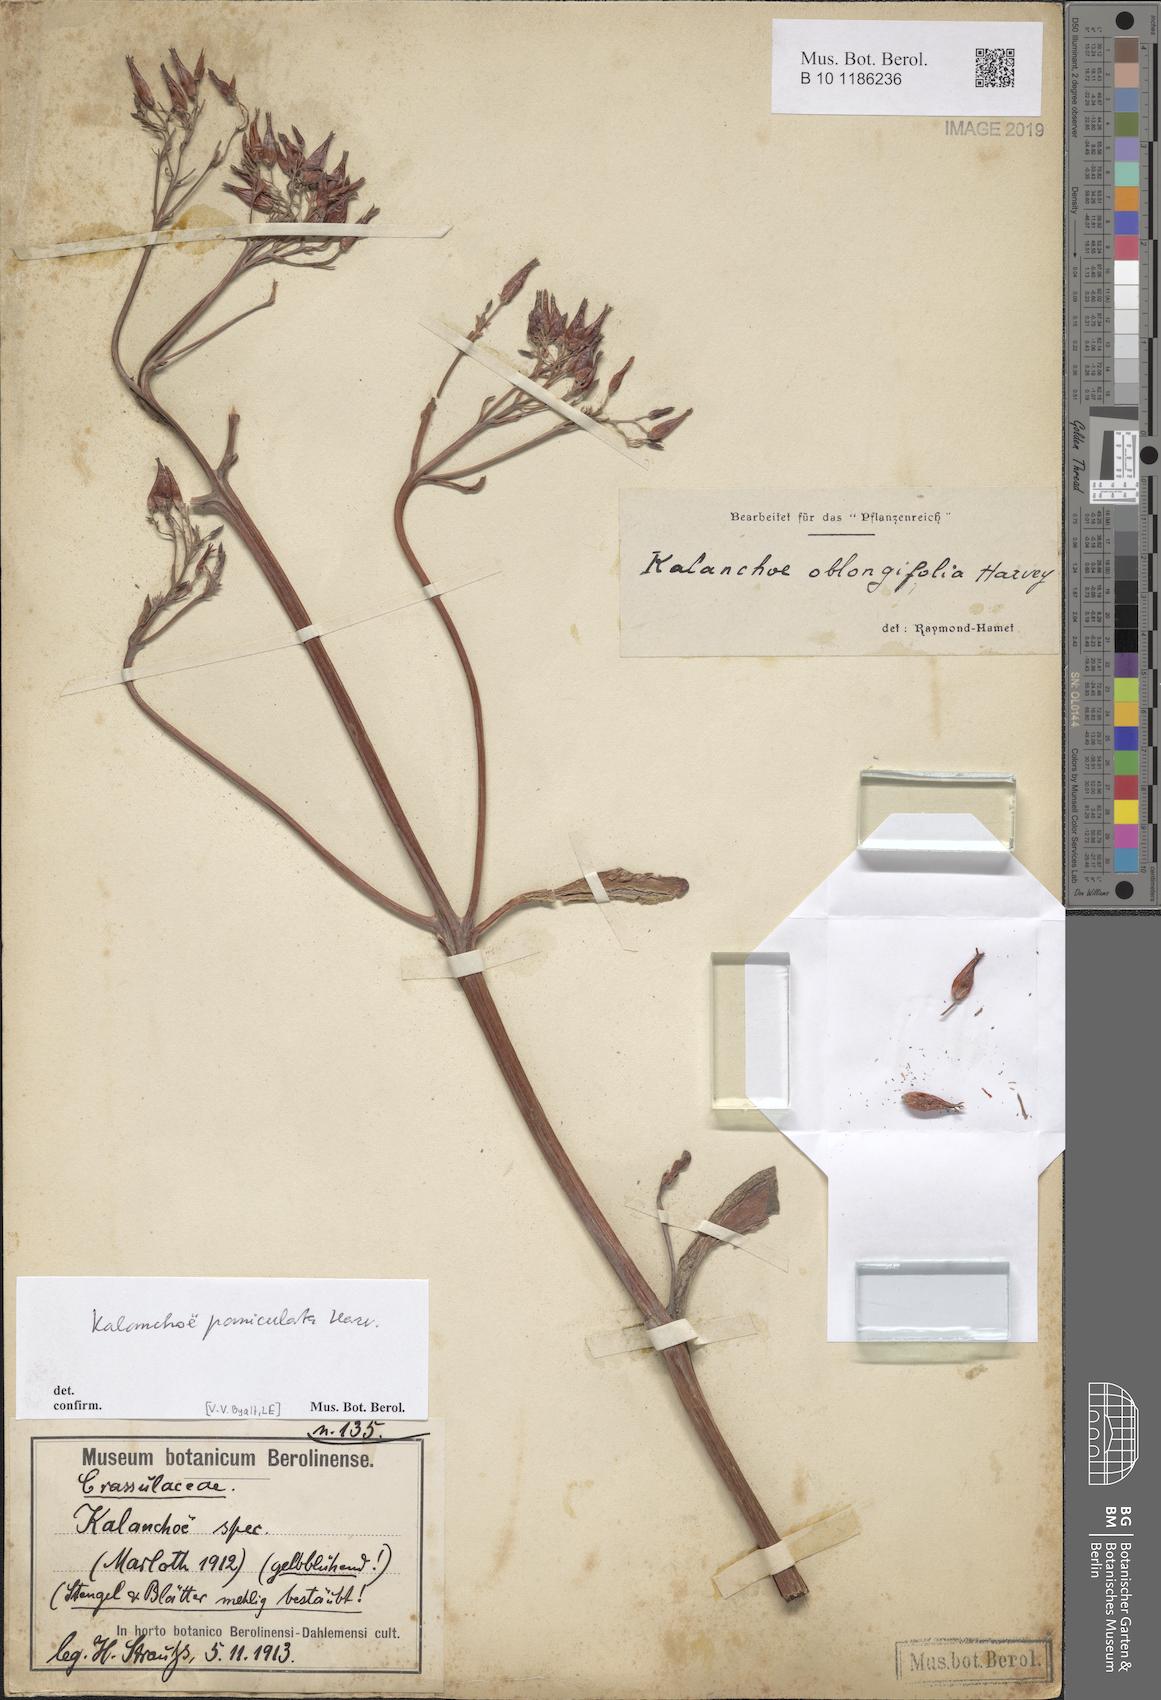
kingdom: Plantae
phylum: Tracheophyta
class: Magnoliopsida
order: Saxifragales
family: Crassulaceae
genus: Kalanchoe
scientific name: Kalanchoe paniculata
